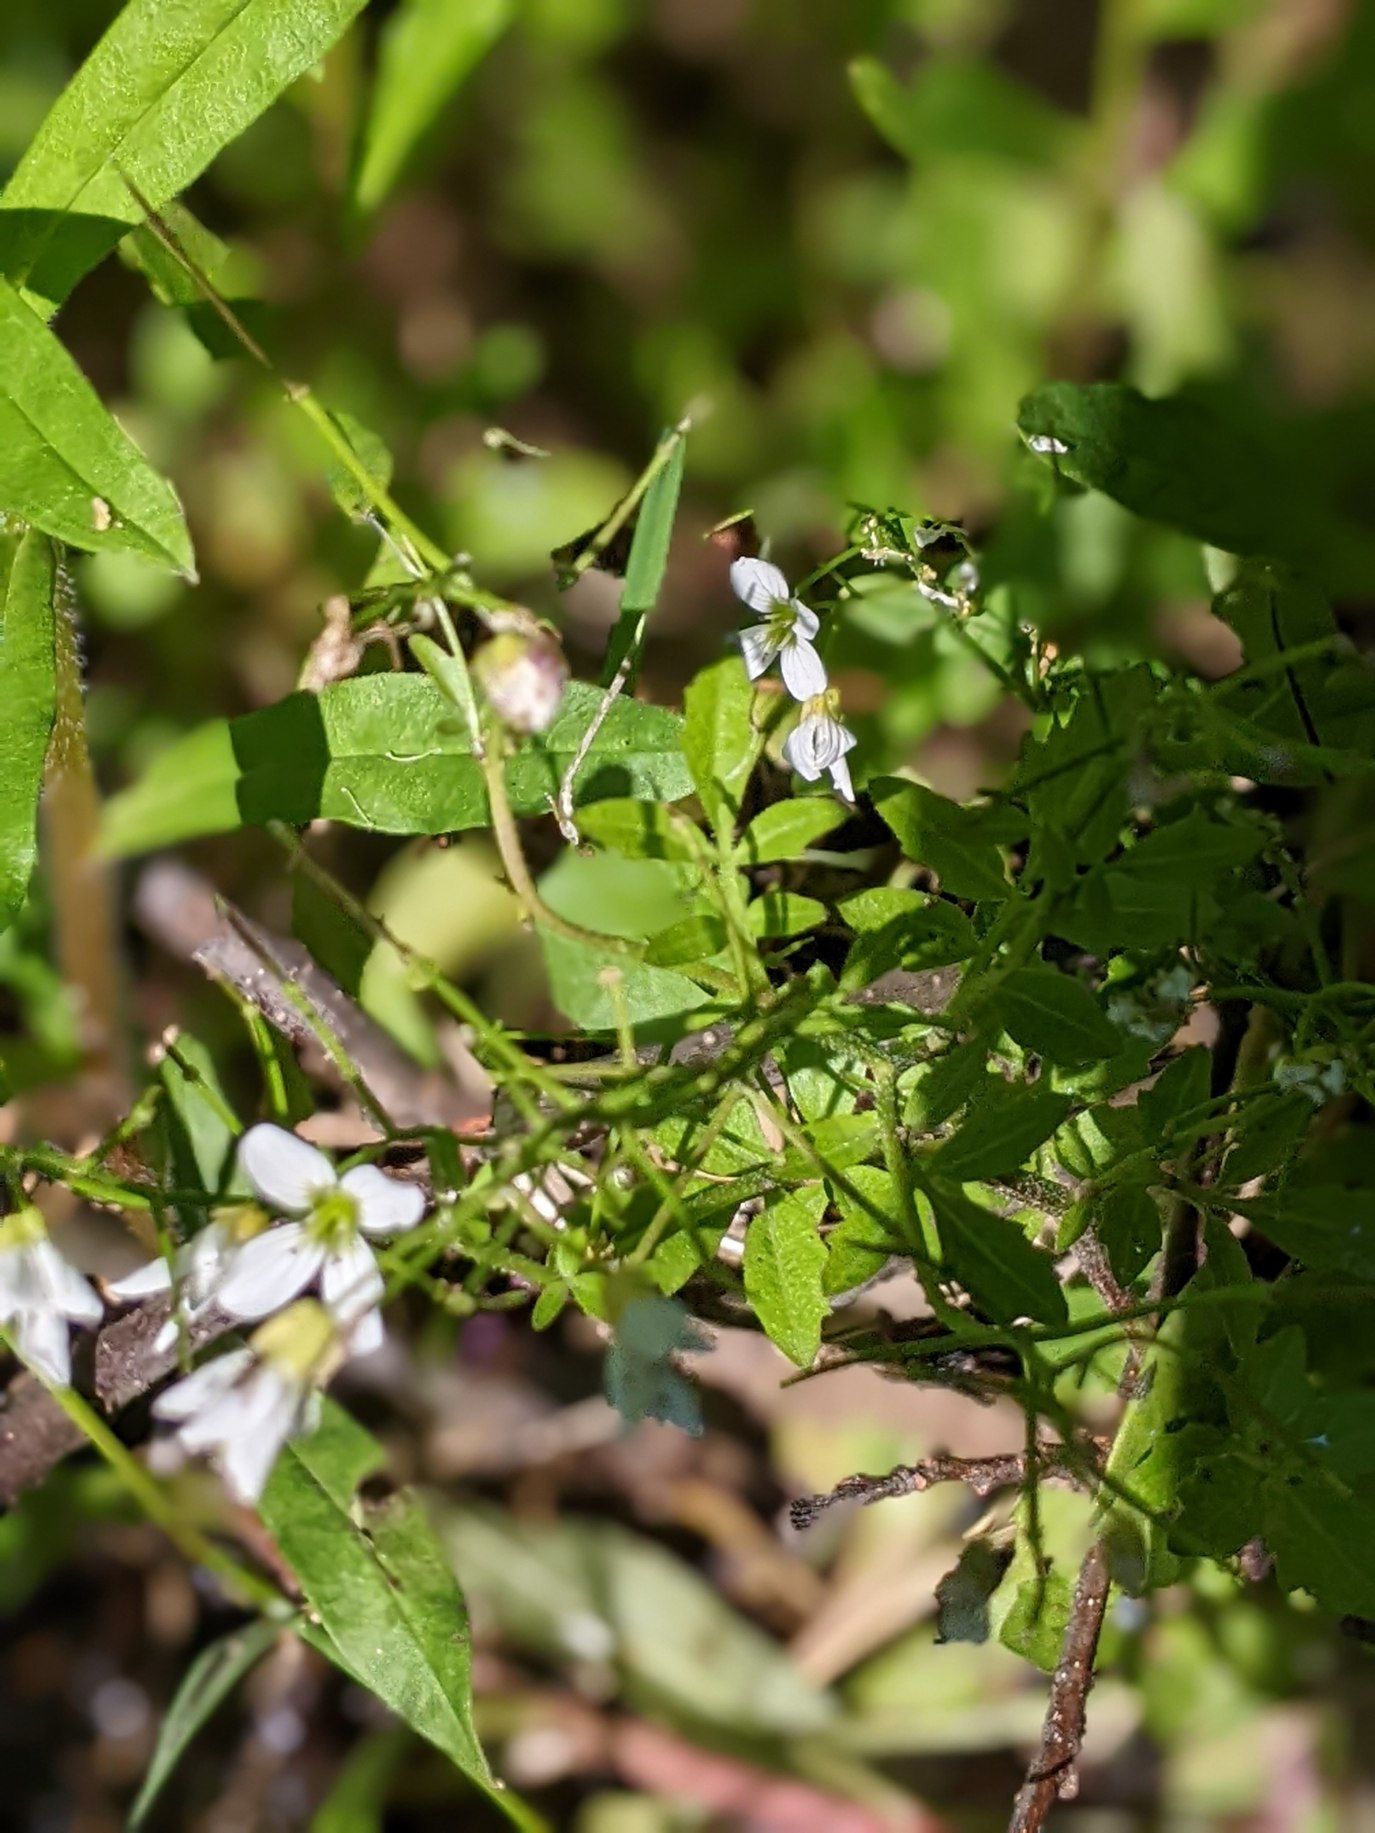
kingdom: Plantae
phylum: Tracheophyta
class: Magnoliopsida
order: Brassicales
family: Brassicaceae
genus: Cardamine
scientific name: Cardamine amara
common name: Vandkarse
